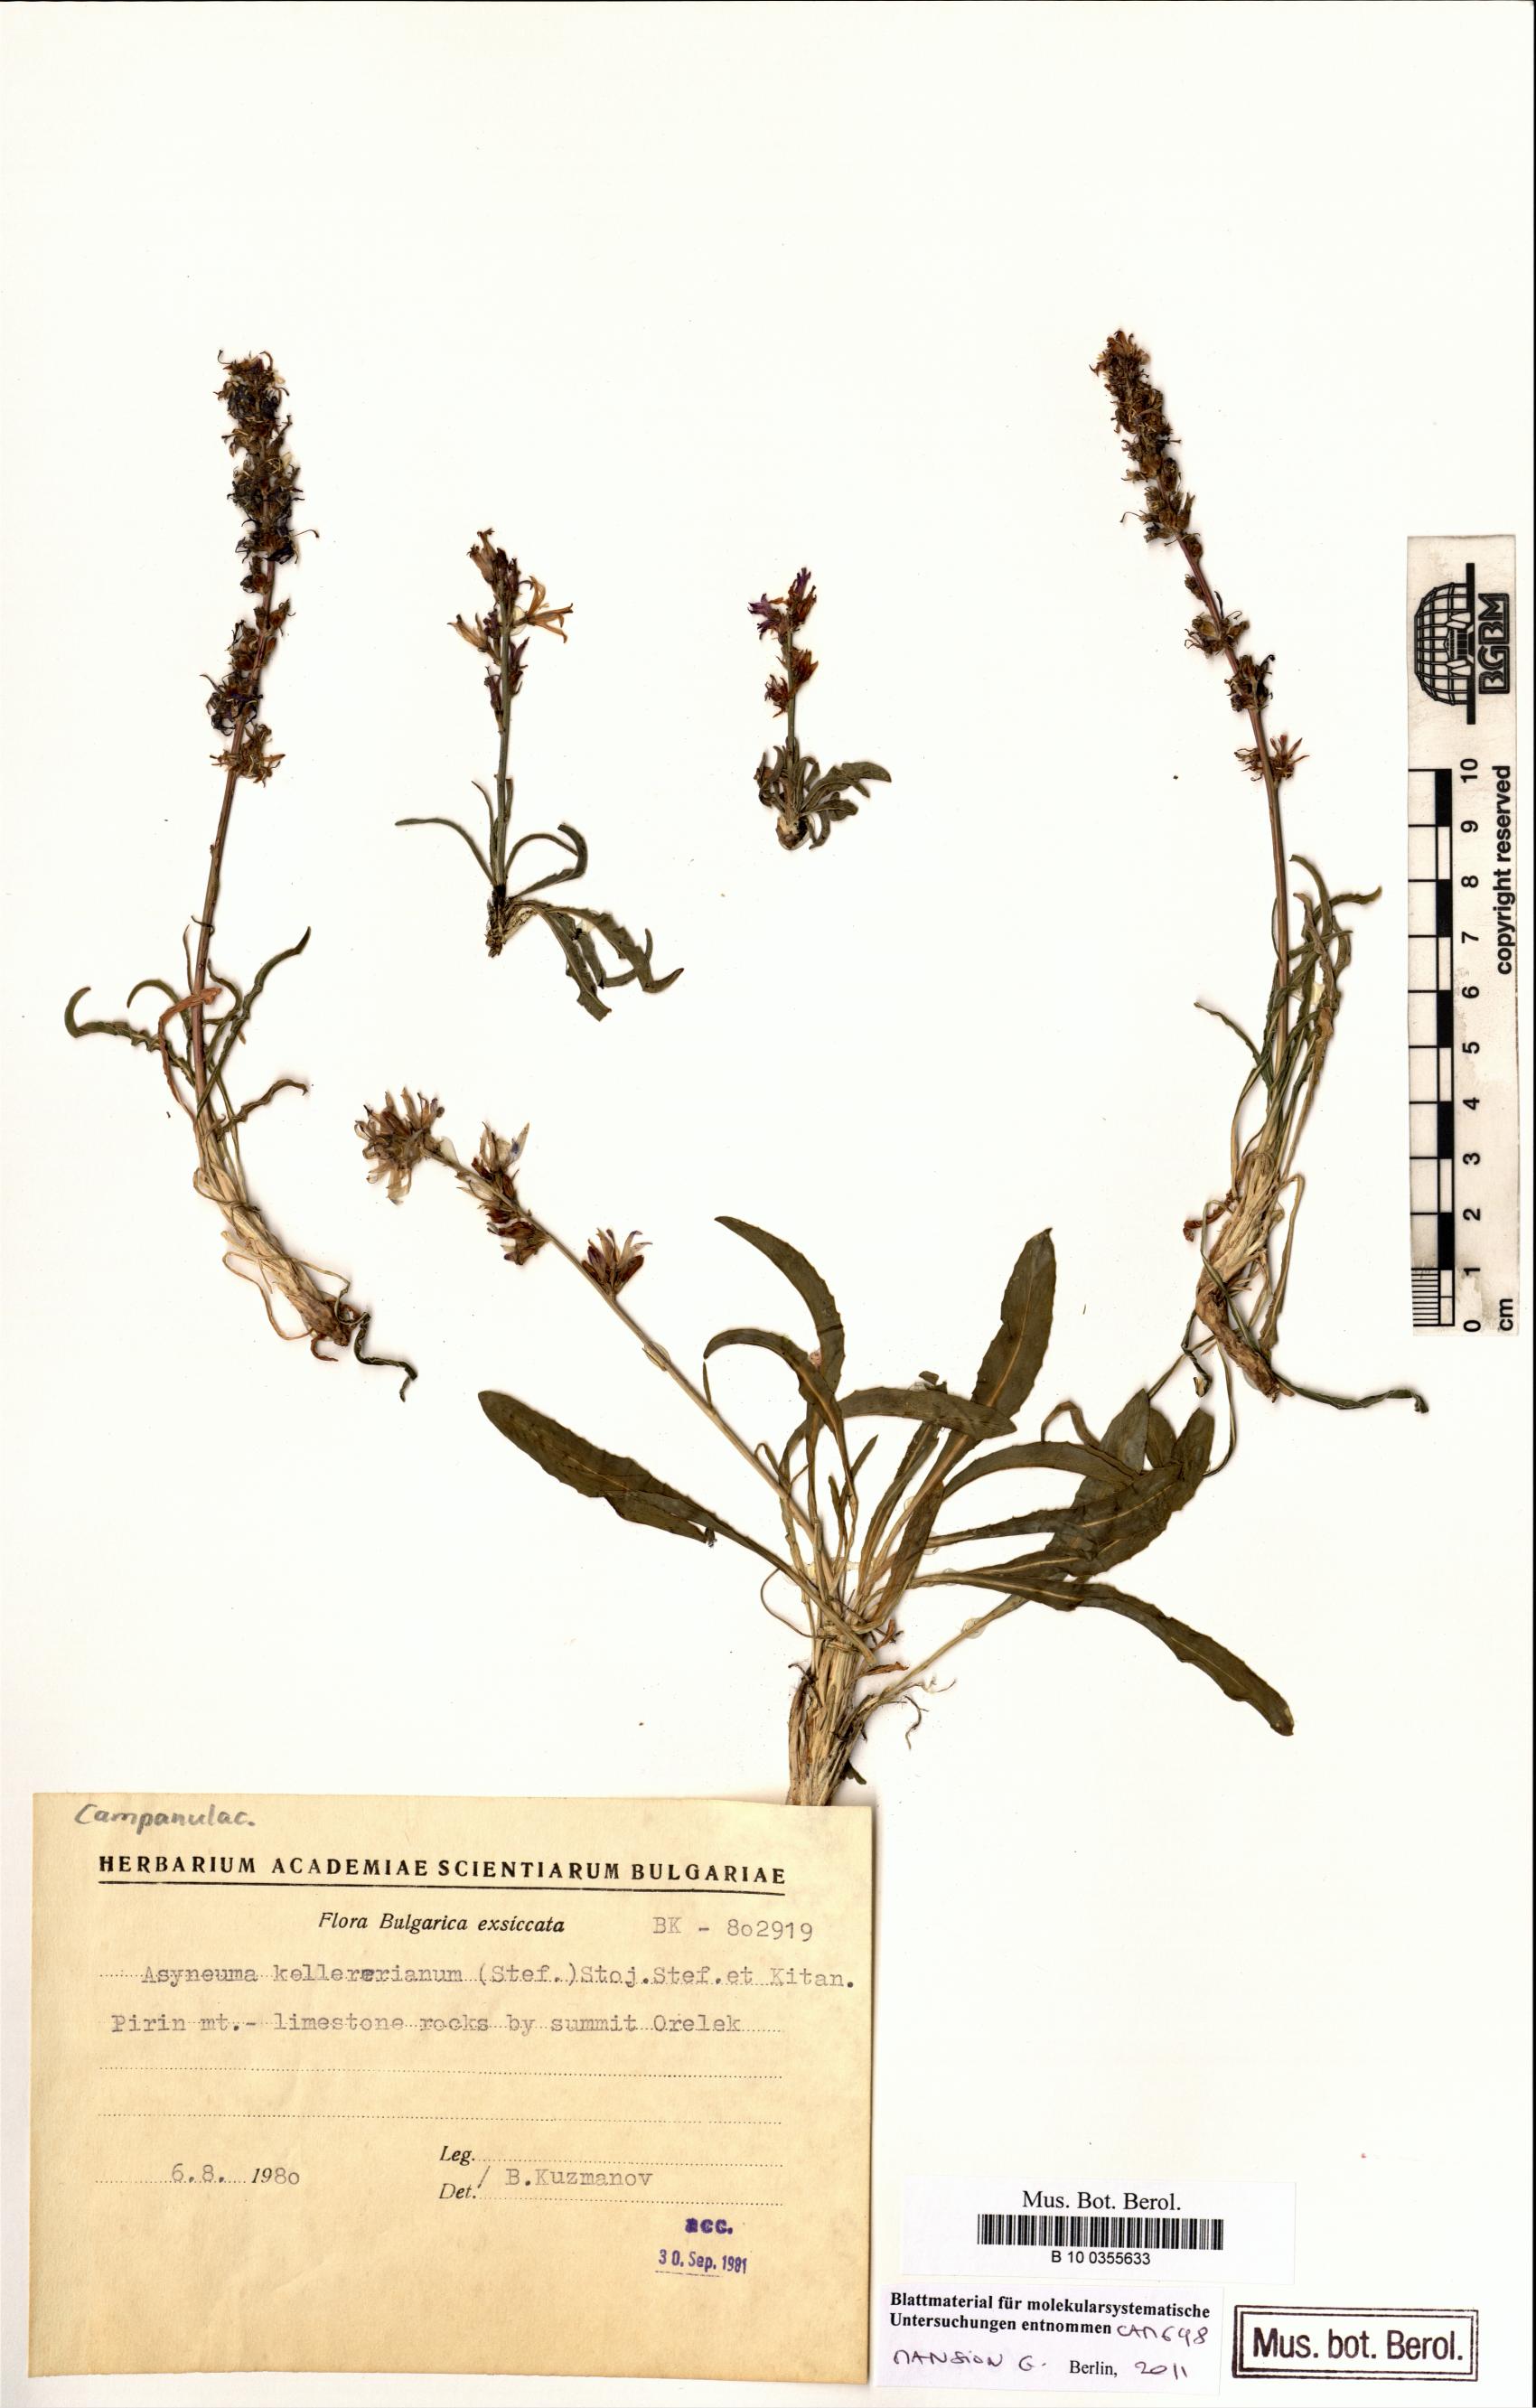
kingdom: Plantae
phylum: Tracheophyta
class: Magnoliopsida
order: Asterales
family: Campanulaceae
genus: Asyneuma
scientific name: Asyneuma limonifolium
